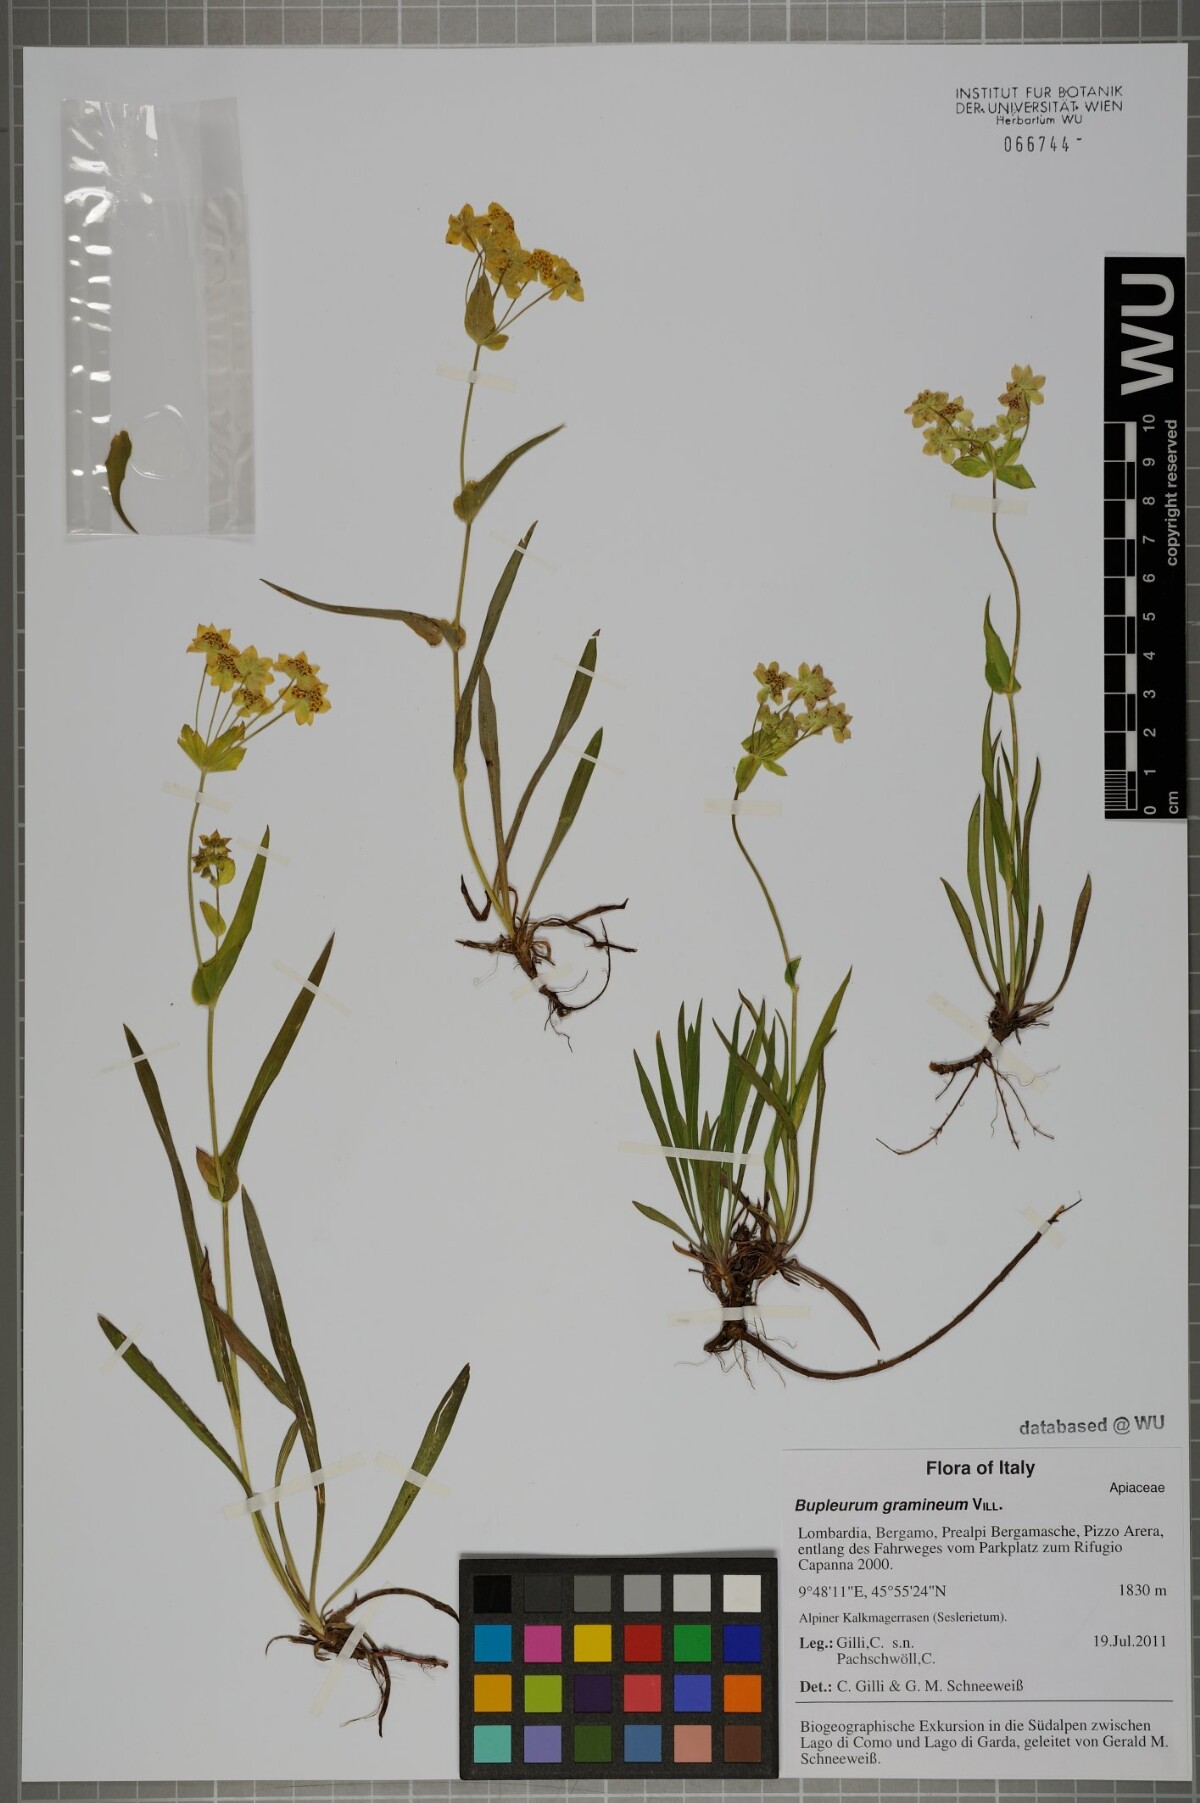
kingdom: Plantae
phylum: Tracheophyta
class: Magnoliopsida
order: Apiales
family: Apiaceae
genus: Bupleurum
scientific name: Bupleurum ranunculoides
